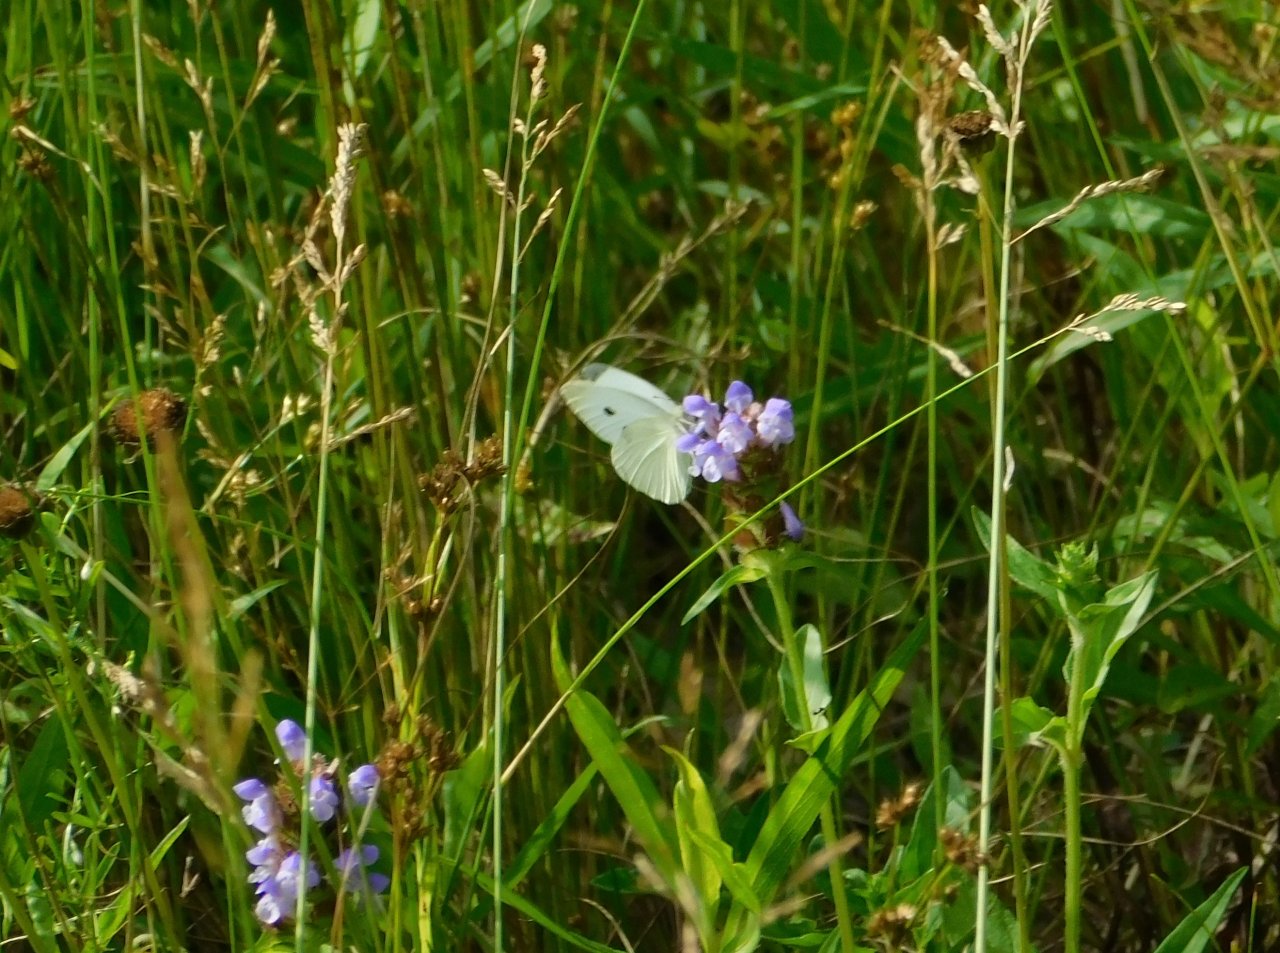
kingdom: Animalia
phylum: Arthropoda
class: Insecta
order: Lepidoptera
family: Pieridae
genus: Pieris
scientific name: Pieris rapae
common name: Cabbage White
